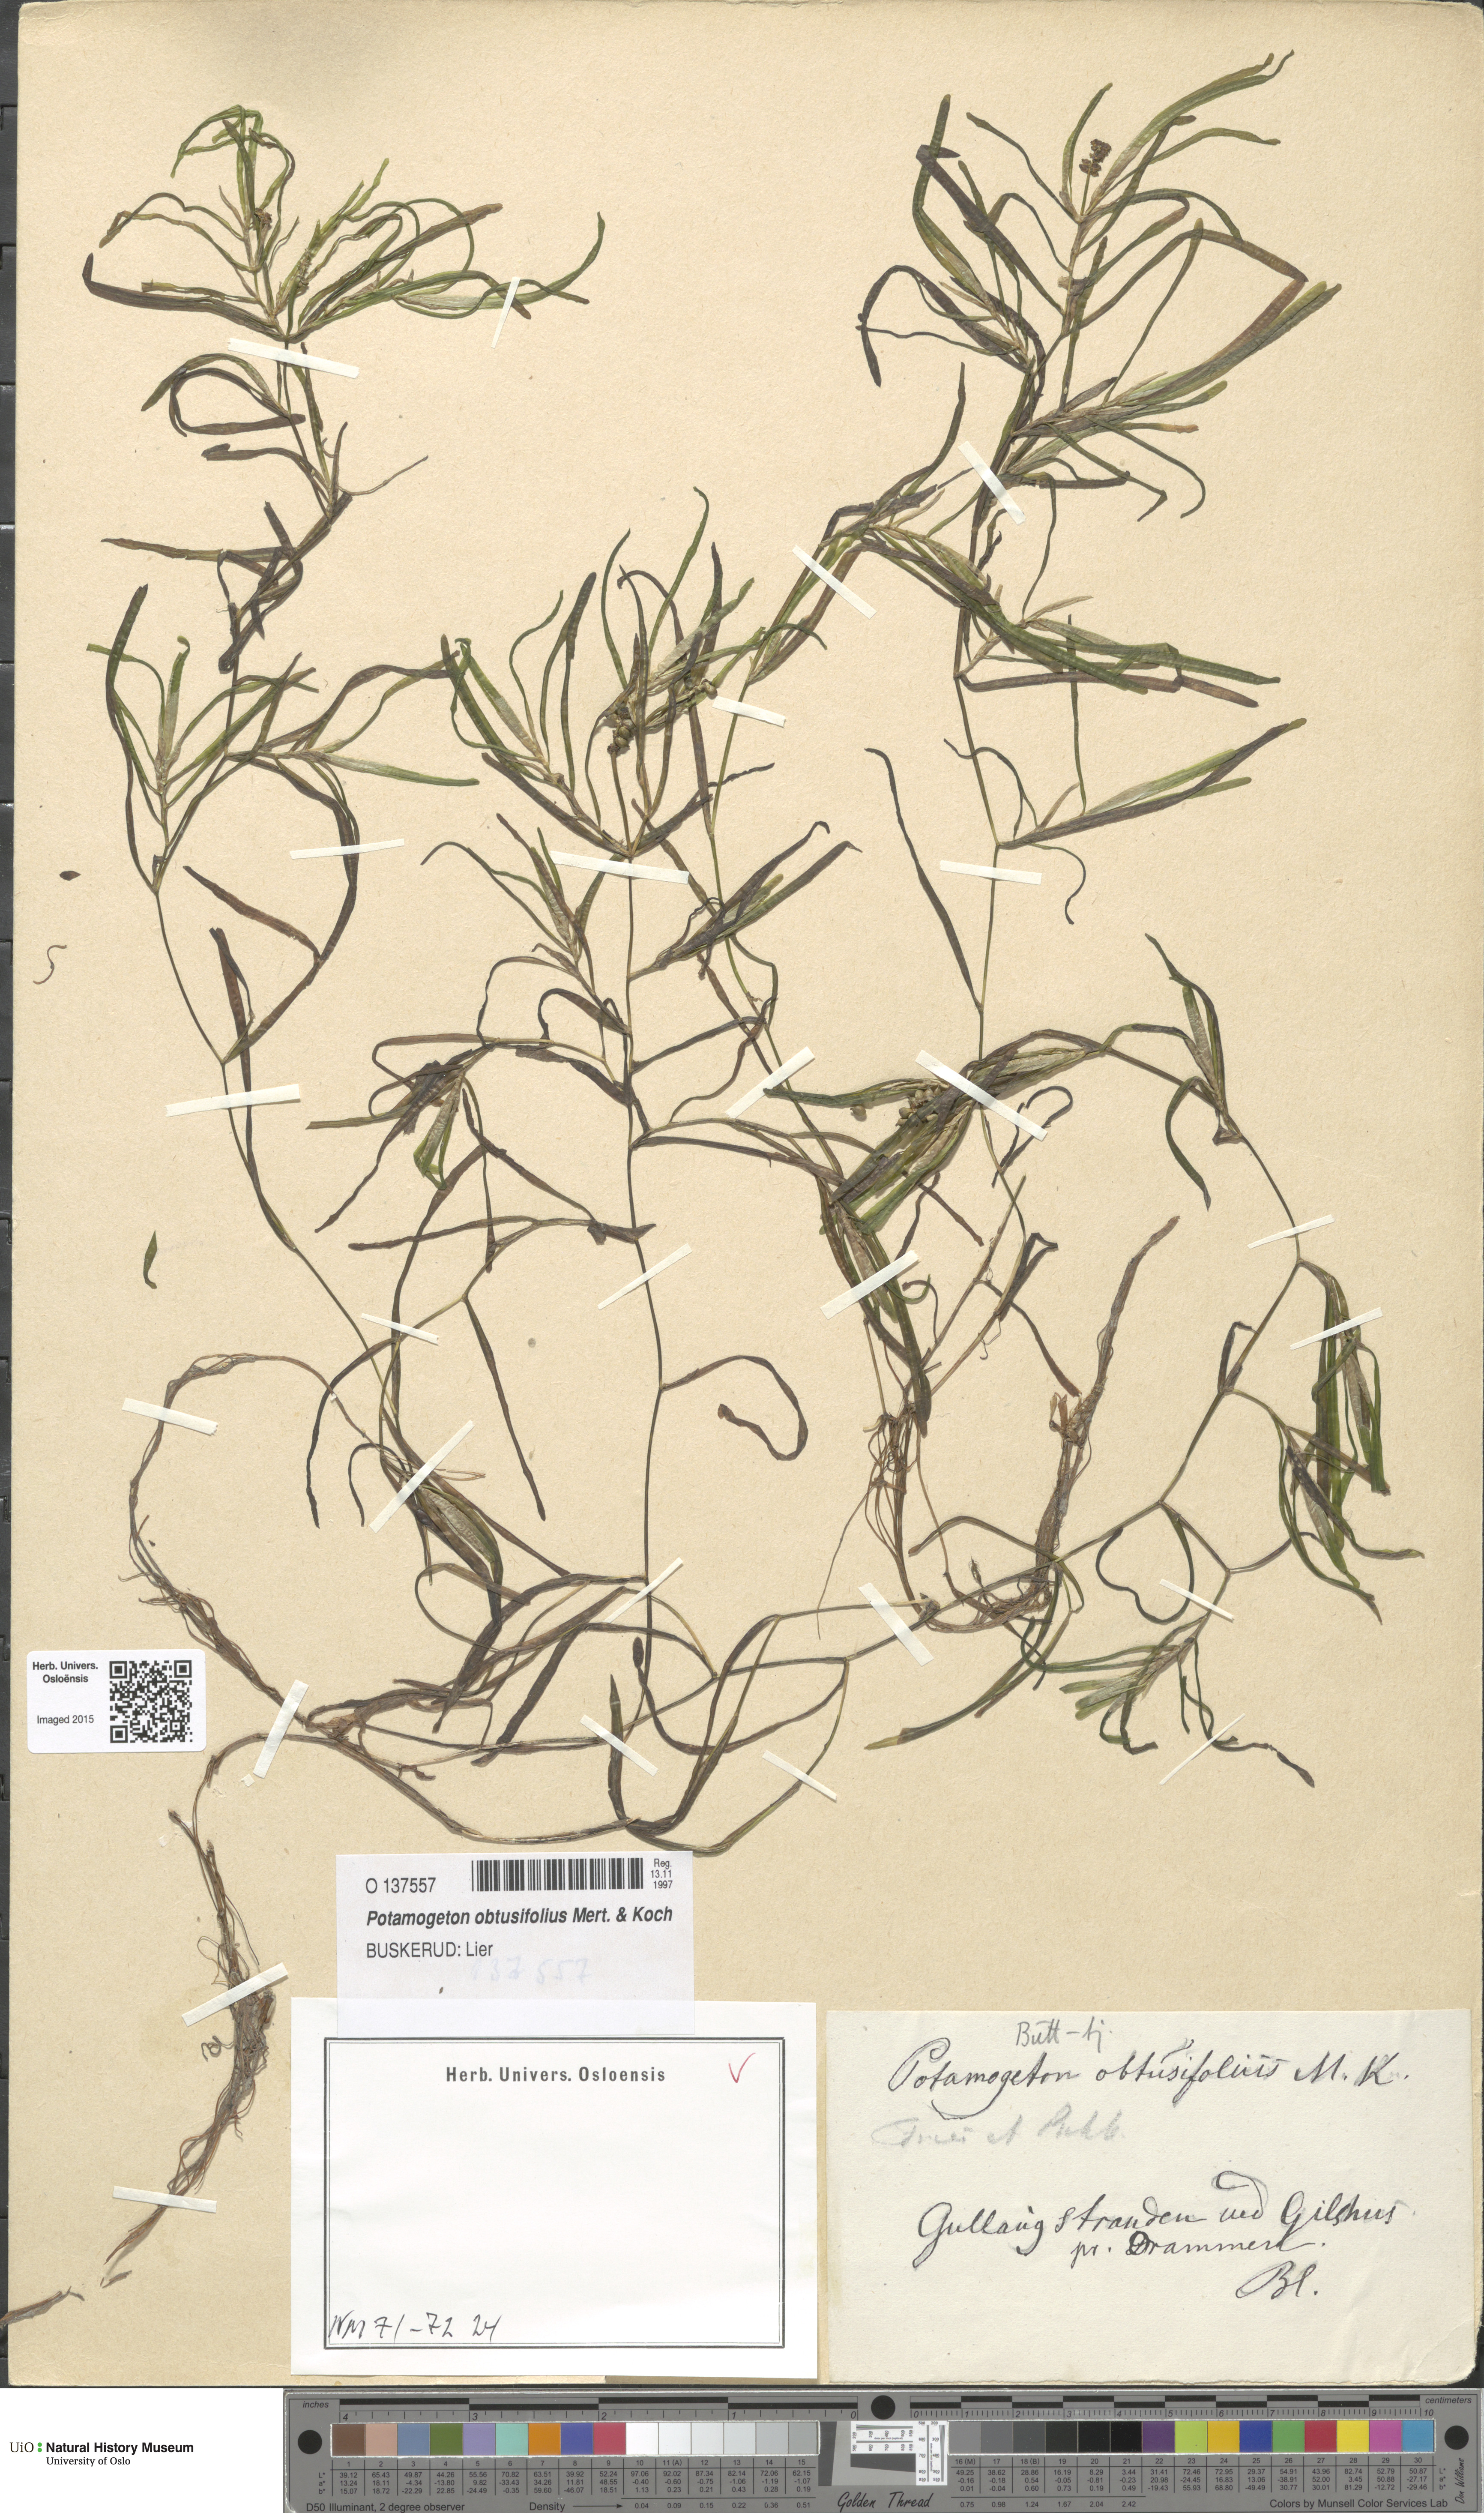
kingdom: Plantae
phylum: Tracheophyta
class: Liliopsida
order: Alismatales
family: Potamogetonaceae
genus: Potamogeton
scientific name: Potamogeton obtusifolius
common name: Blunt-leaved pondweed
